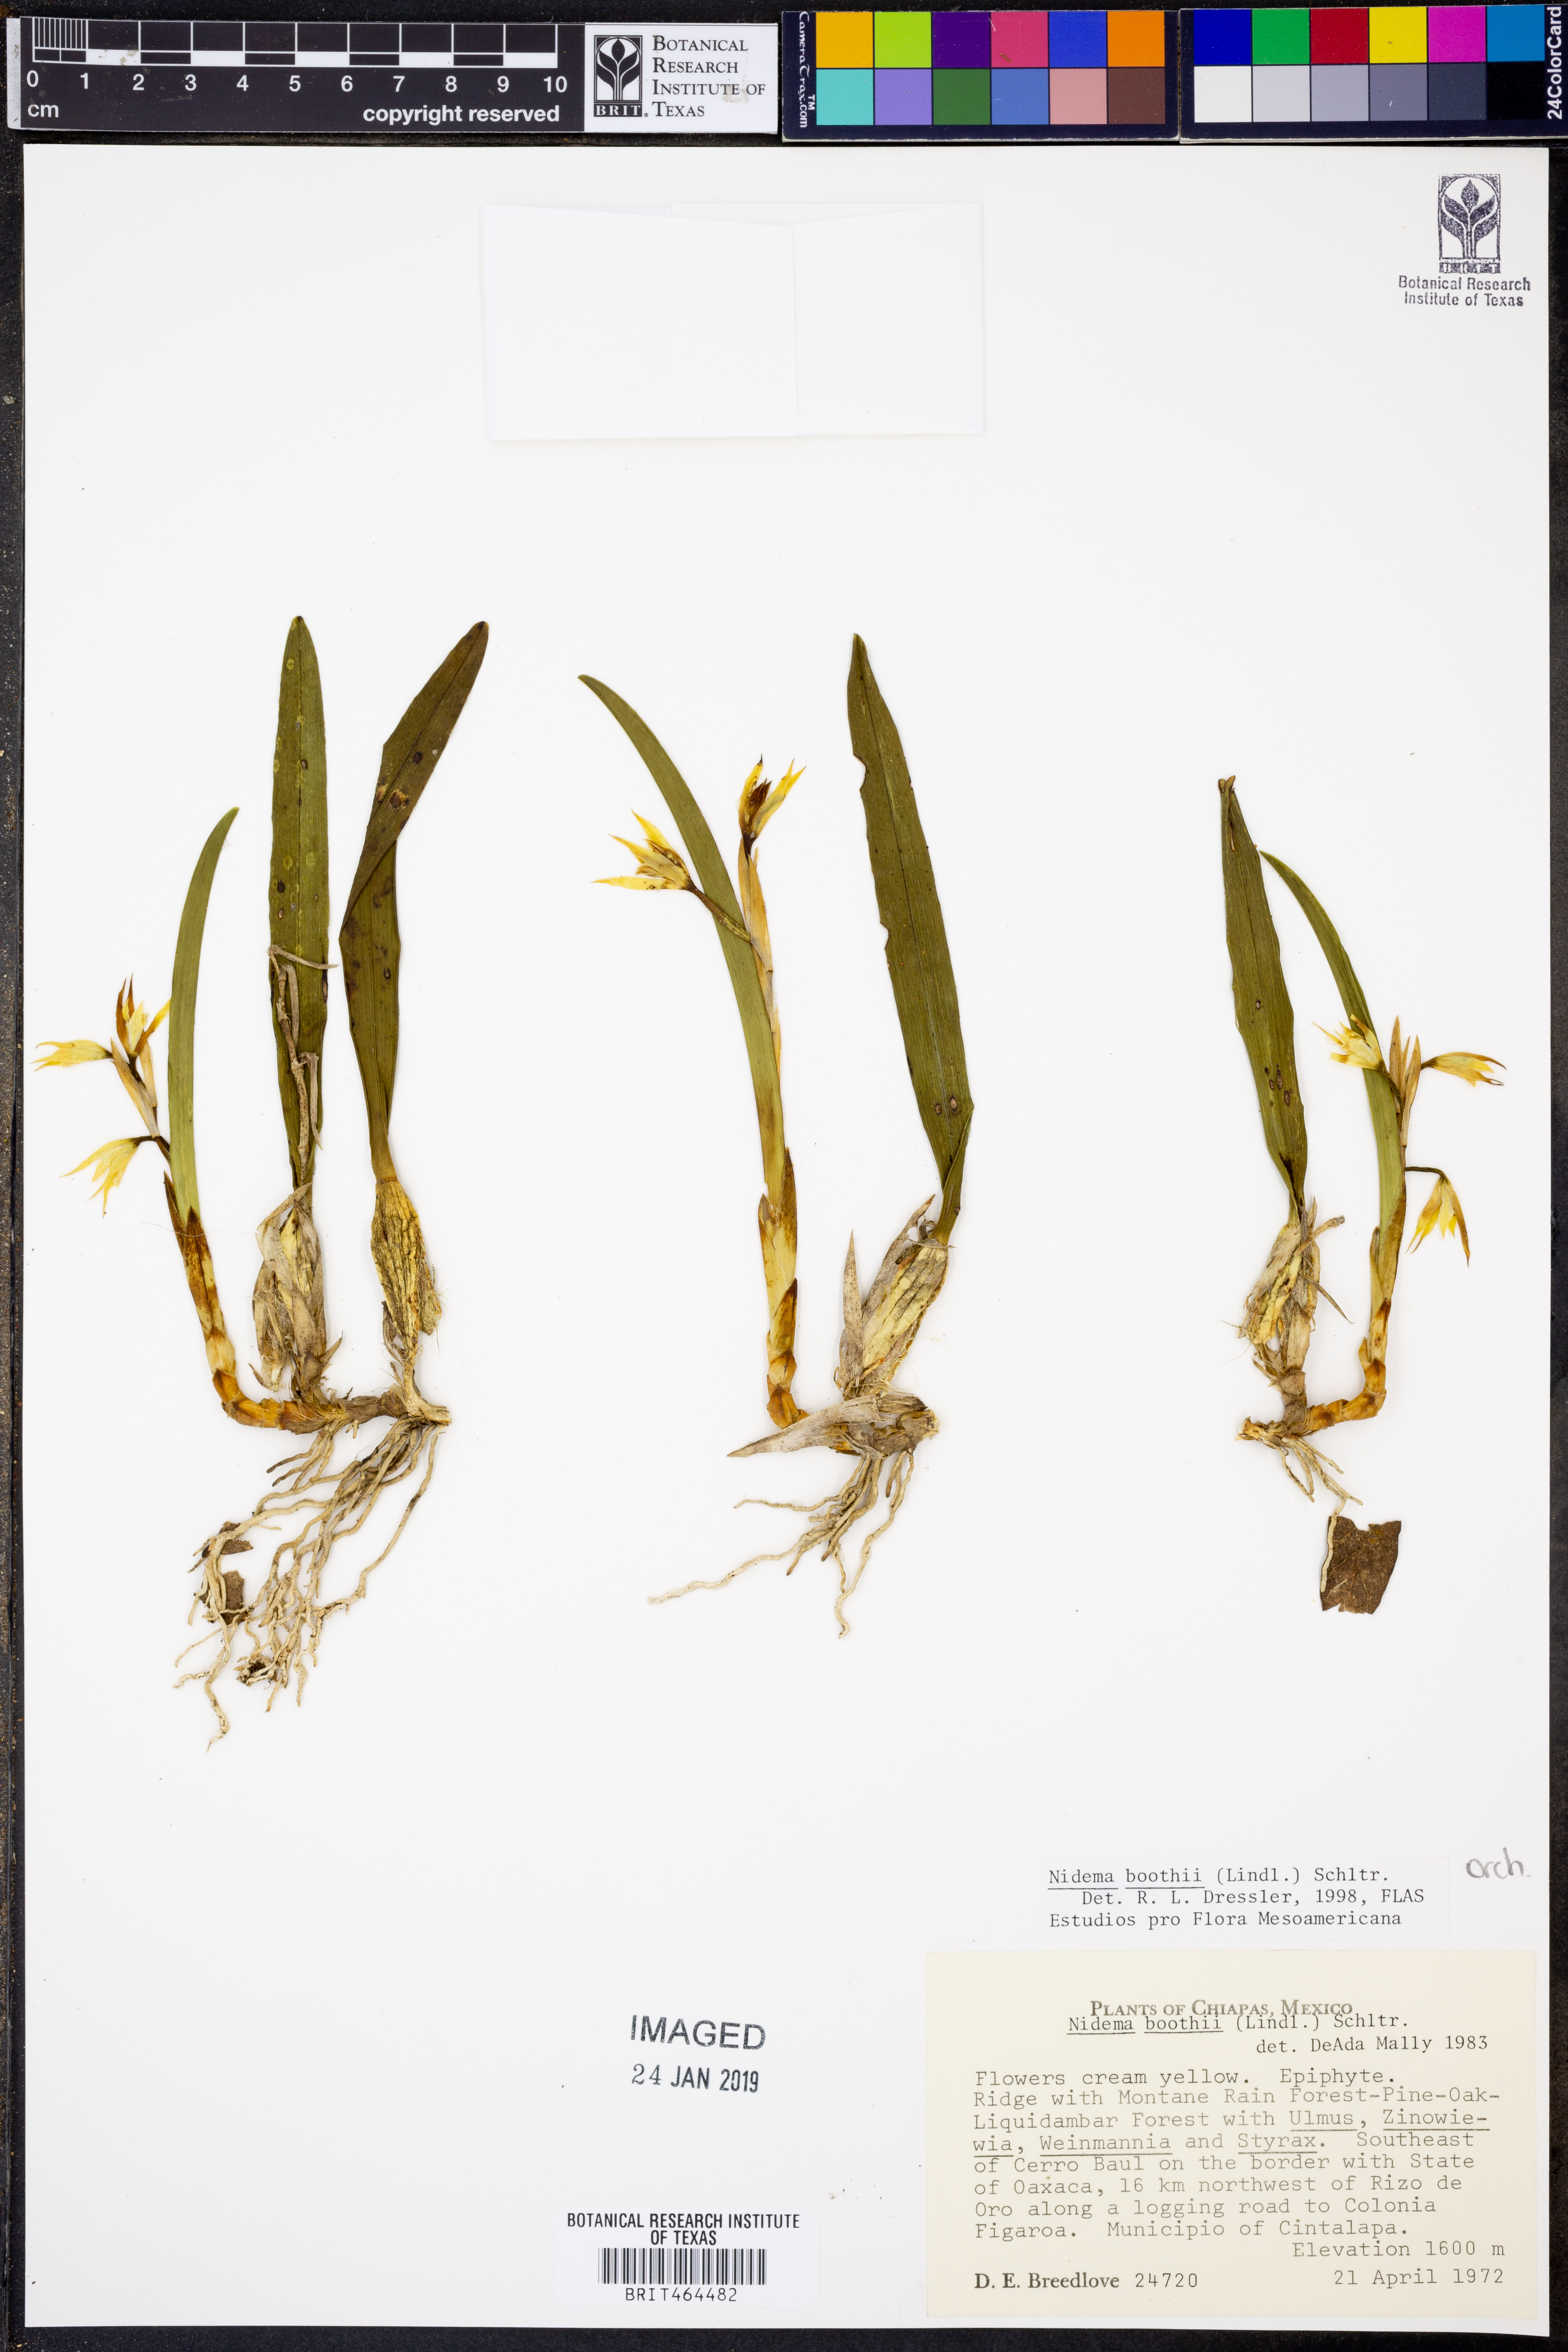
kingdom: Plantae
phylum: Tracheophyta
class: Liliopsida
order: Asparagales
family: Orchidaceae
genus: Nidema
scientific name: Nidema boothii
